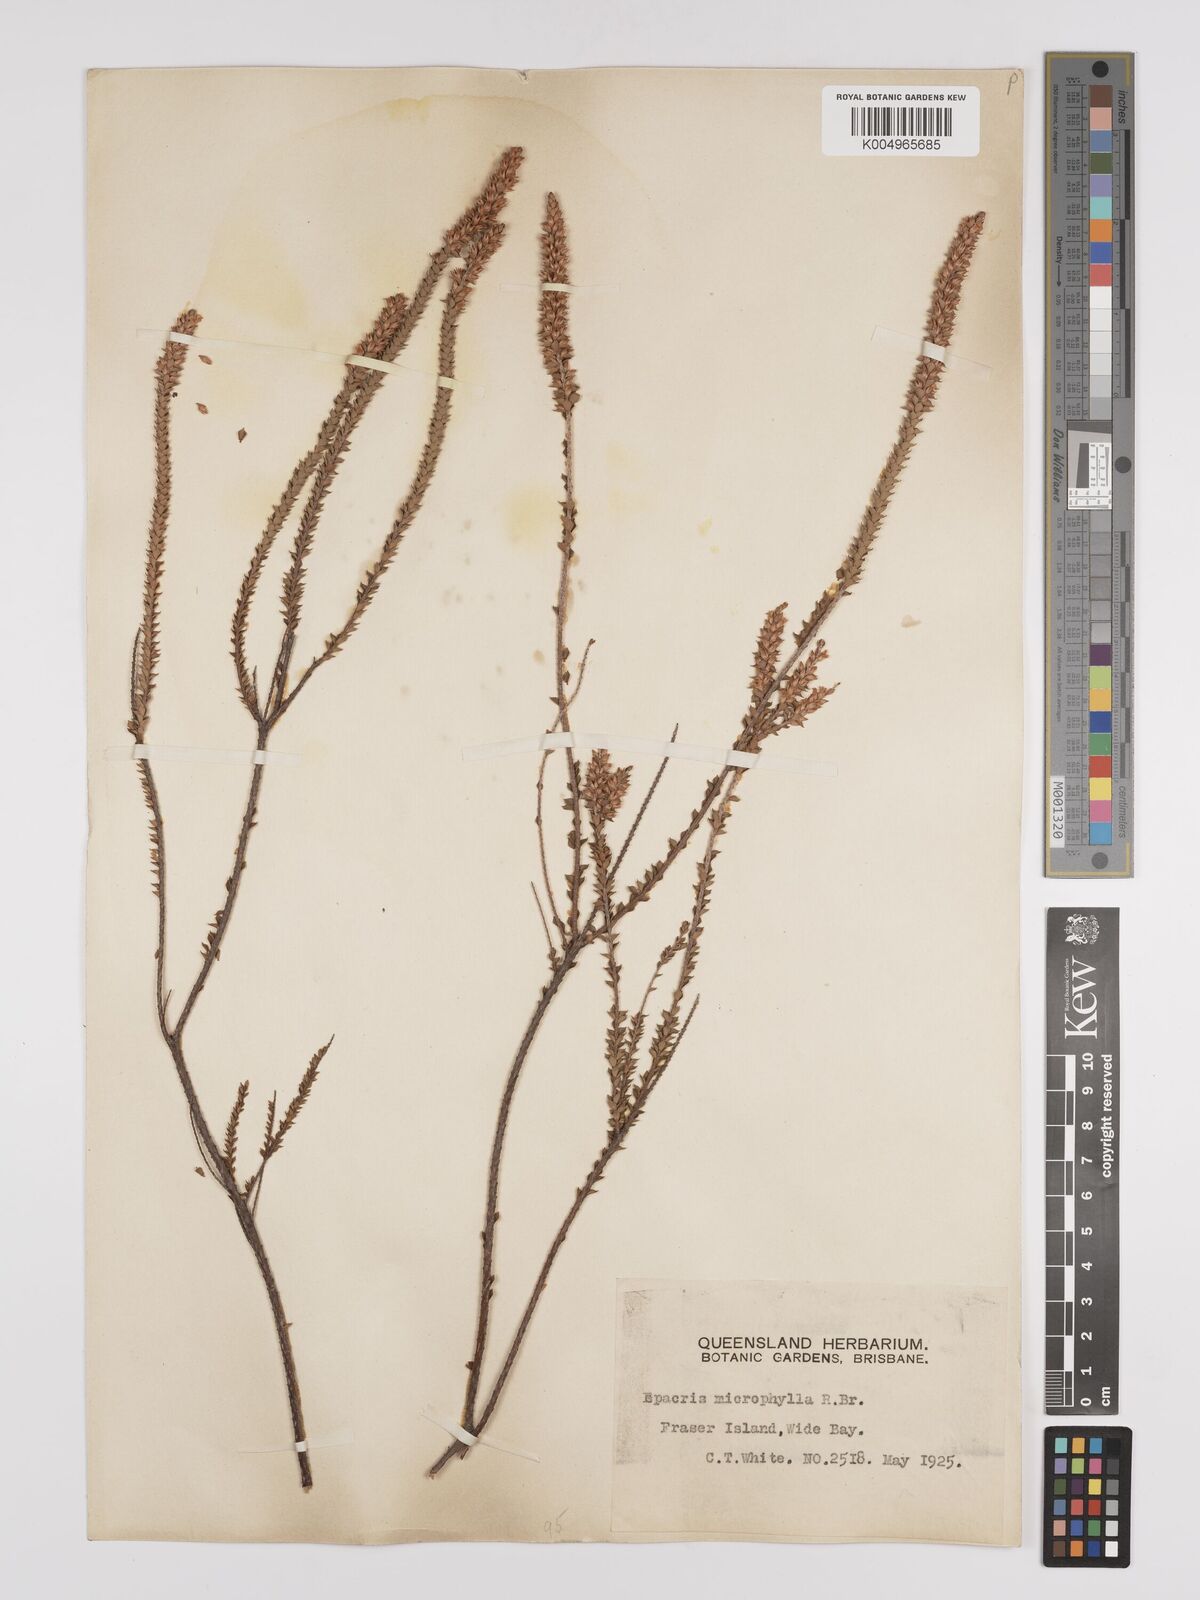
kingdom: Plantae
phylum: Tracheophyta
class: Magnoliopsida
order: Ericales
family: Ericaceae
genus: Epacris
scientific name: Epacris
